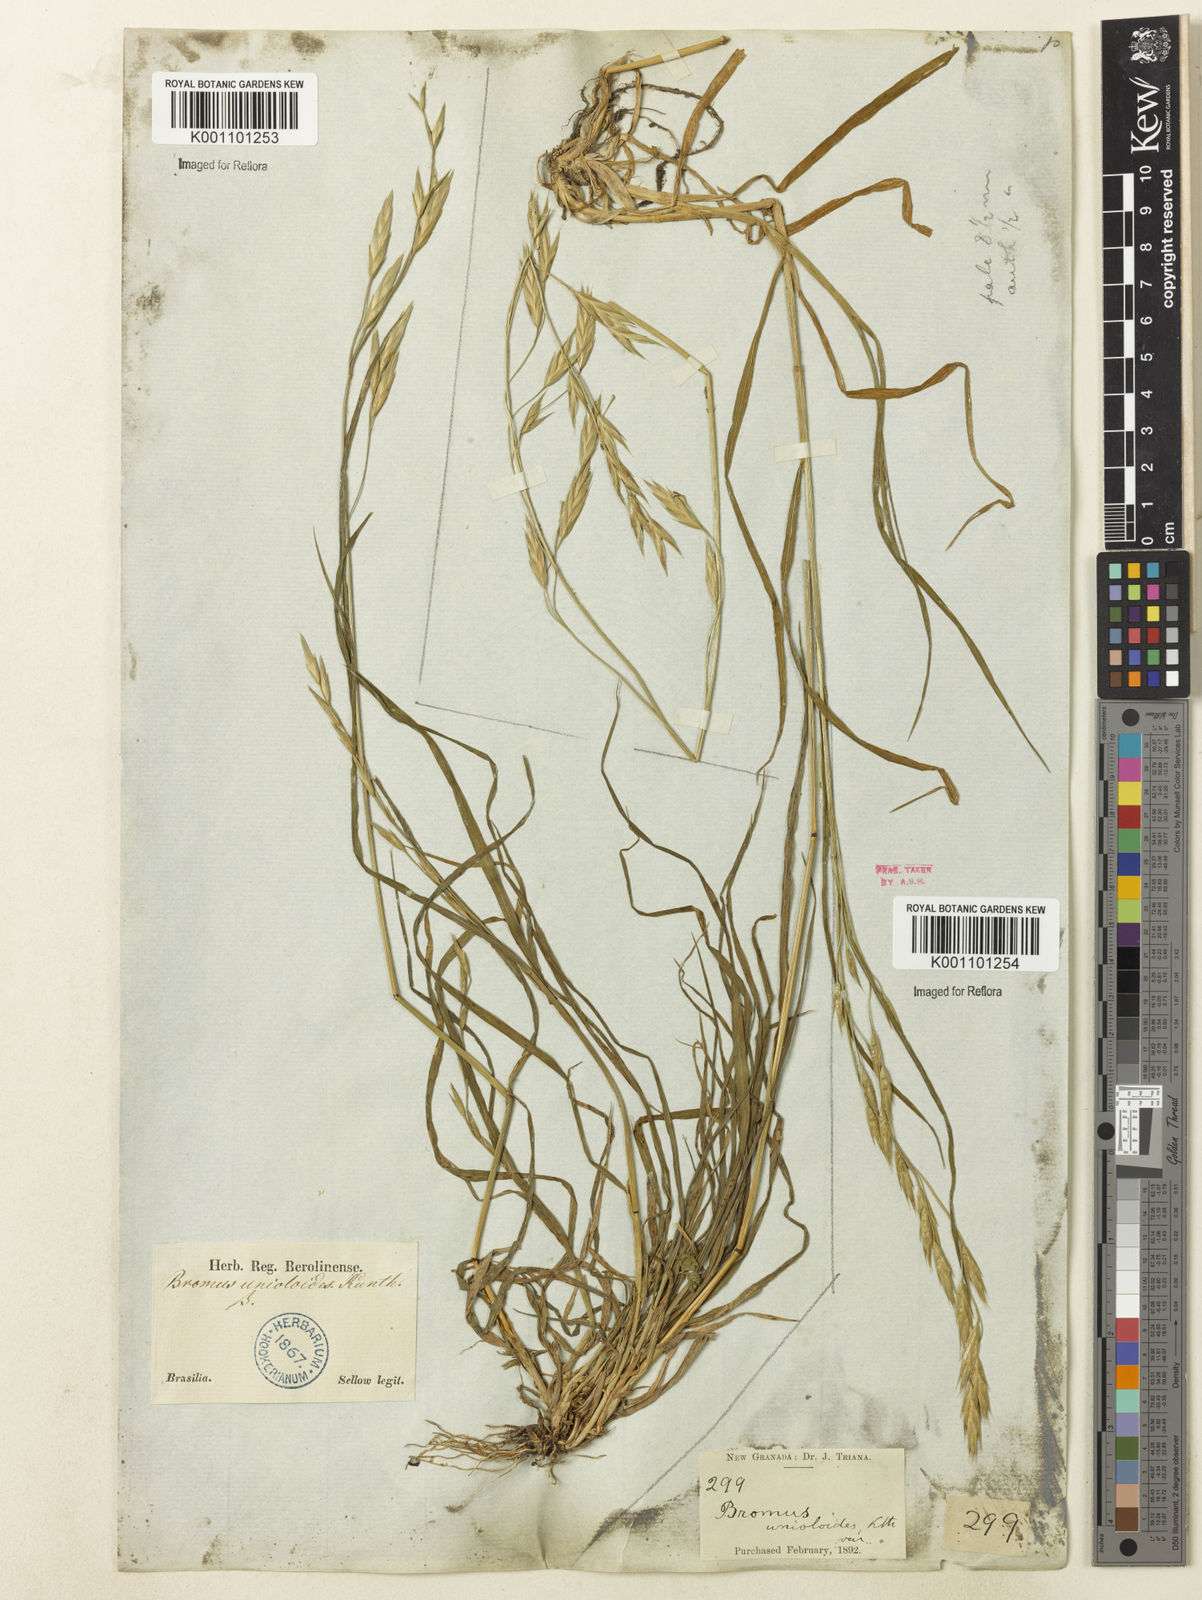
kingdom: Plantae
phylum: Tracheophyta
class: Liliopsida
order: Poales
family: Poaceae
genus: Bromus
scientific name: Bromus catharticus
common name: Rescuegrass
